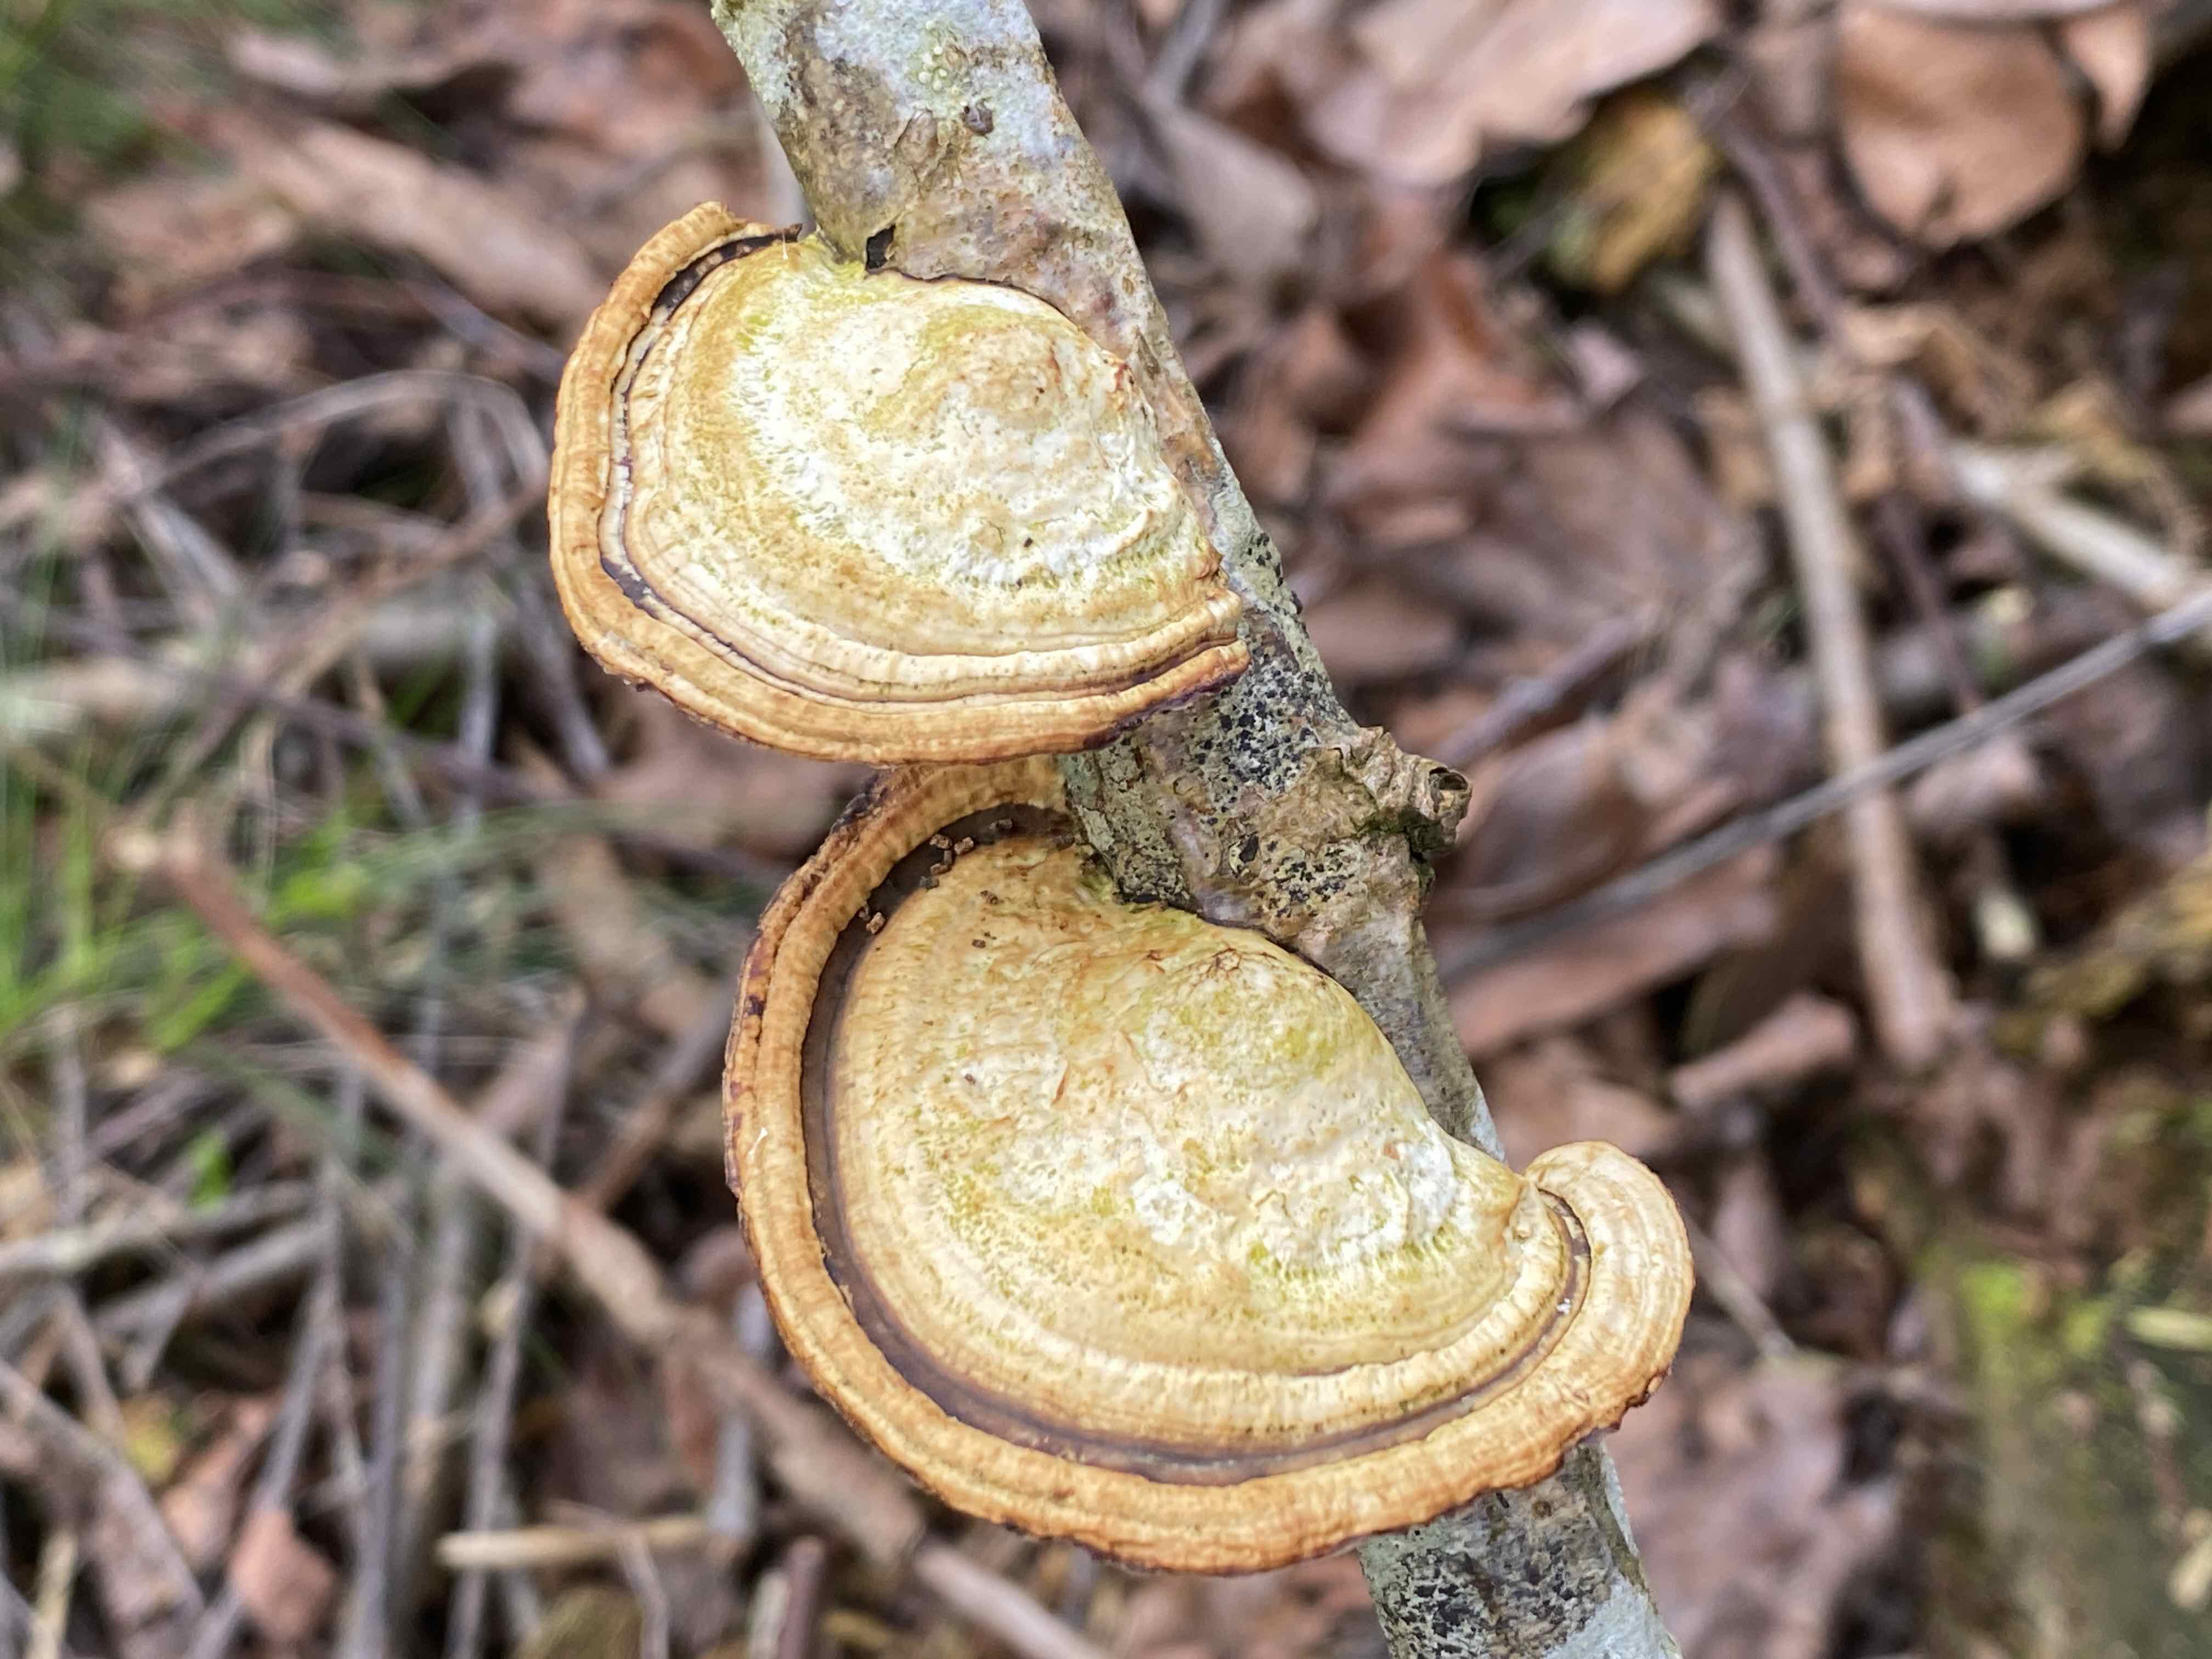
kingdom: Fungi
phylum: Basidiomycota
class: Agaricomycetes
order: Polyporales
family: Polyporaceae
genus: Daedaleopsis
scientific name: Daedaleopsis confragosa
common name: rødmende læderporesvamp
